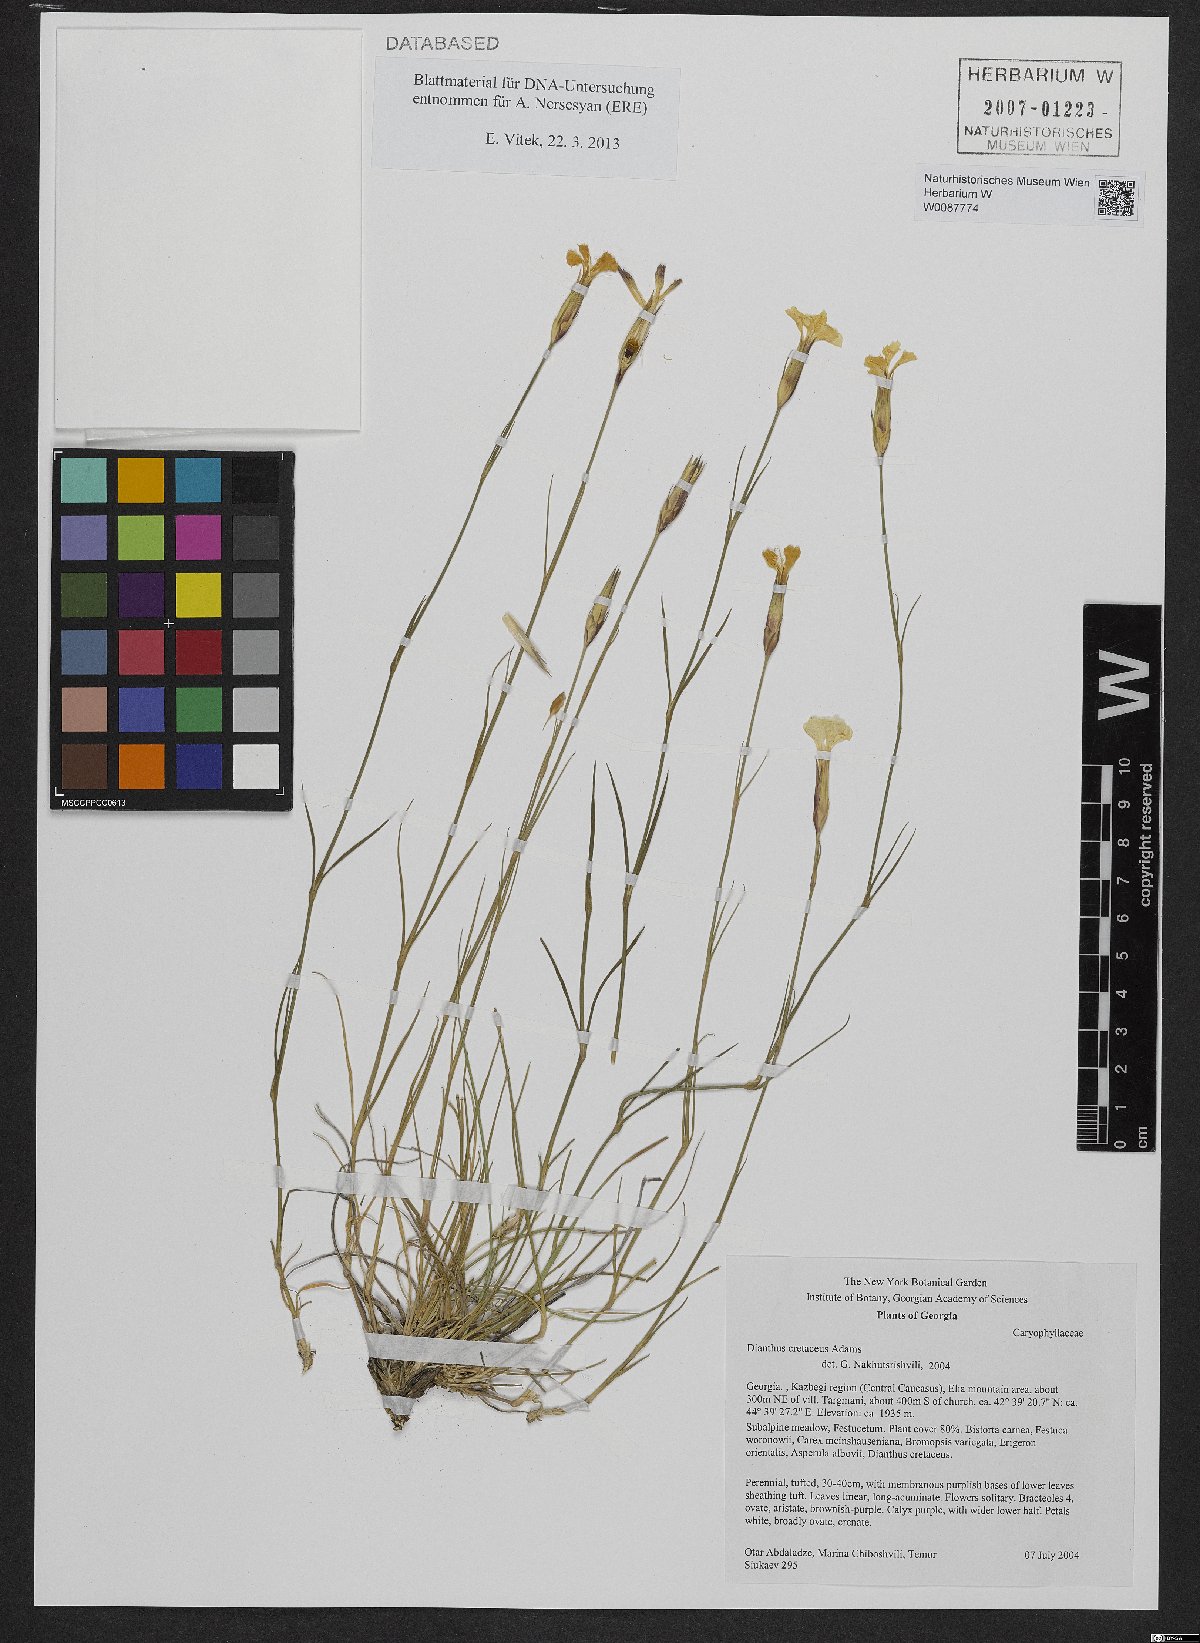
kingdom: Plantae
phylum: Tracheophyta
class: Magnoliopsida
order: Caryophyllales
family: Caryophyllaceae
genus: Dianthus
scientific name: Dianthus cretaceus
